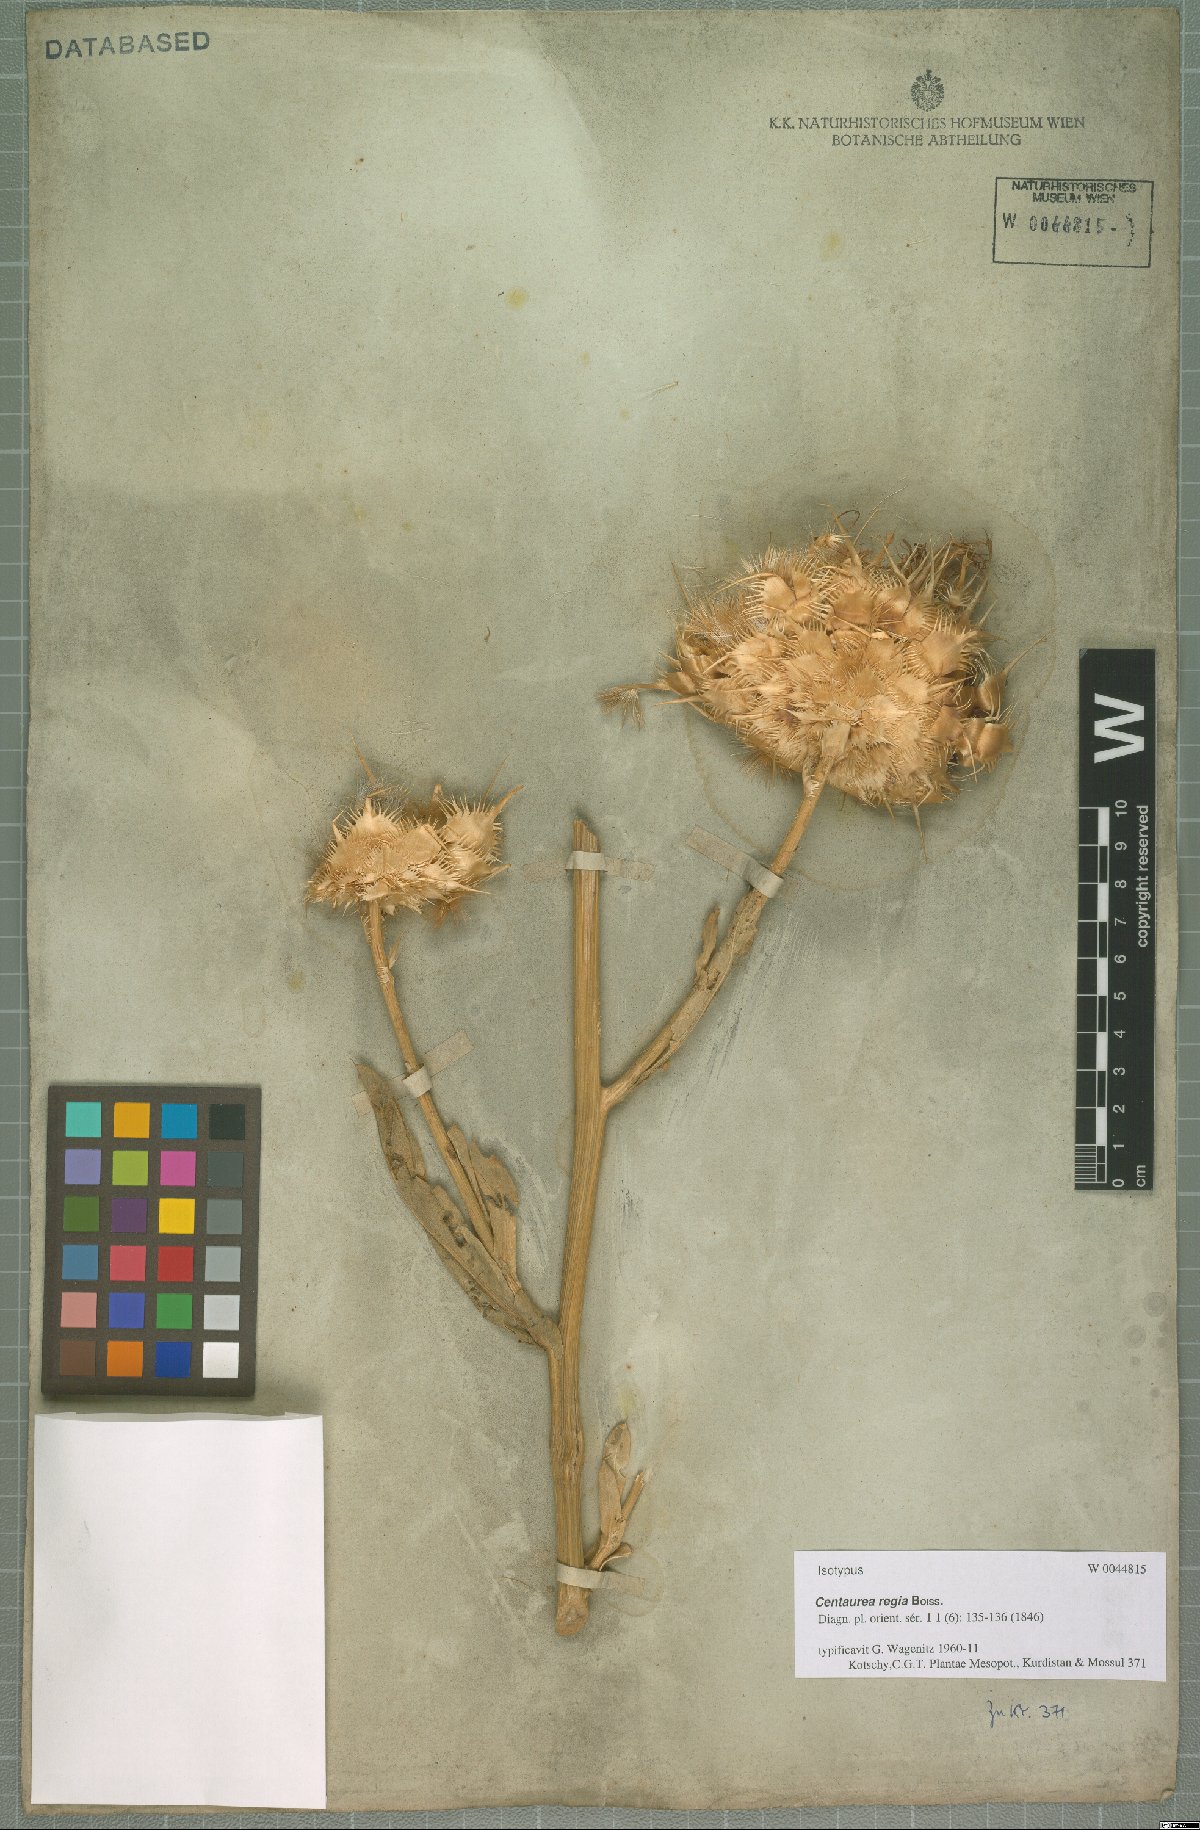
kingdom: Plantae
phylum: Tracheophyta
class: Magnoliopsida
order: Asterales
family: Asteraceae
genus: Centaurea
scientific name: Centaurea regia
